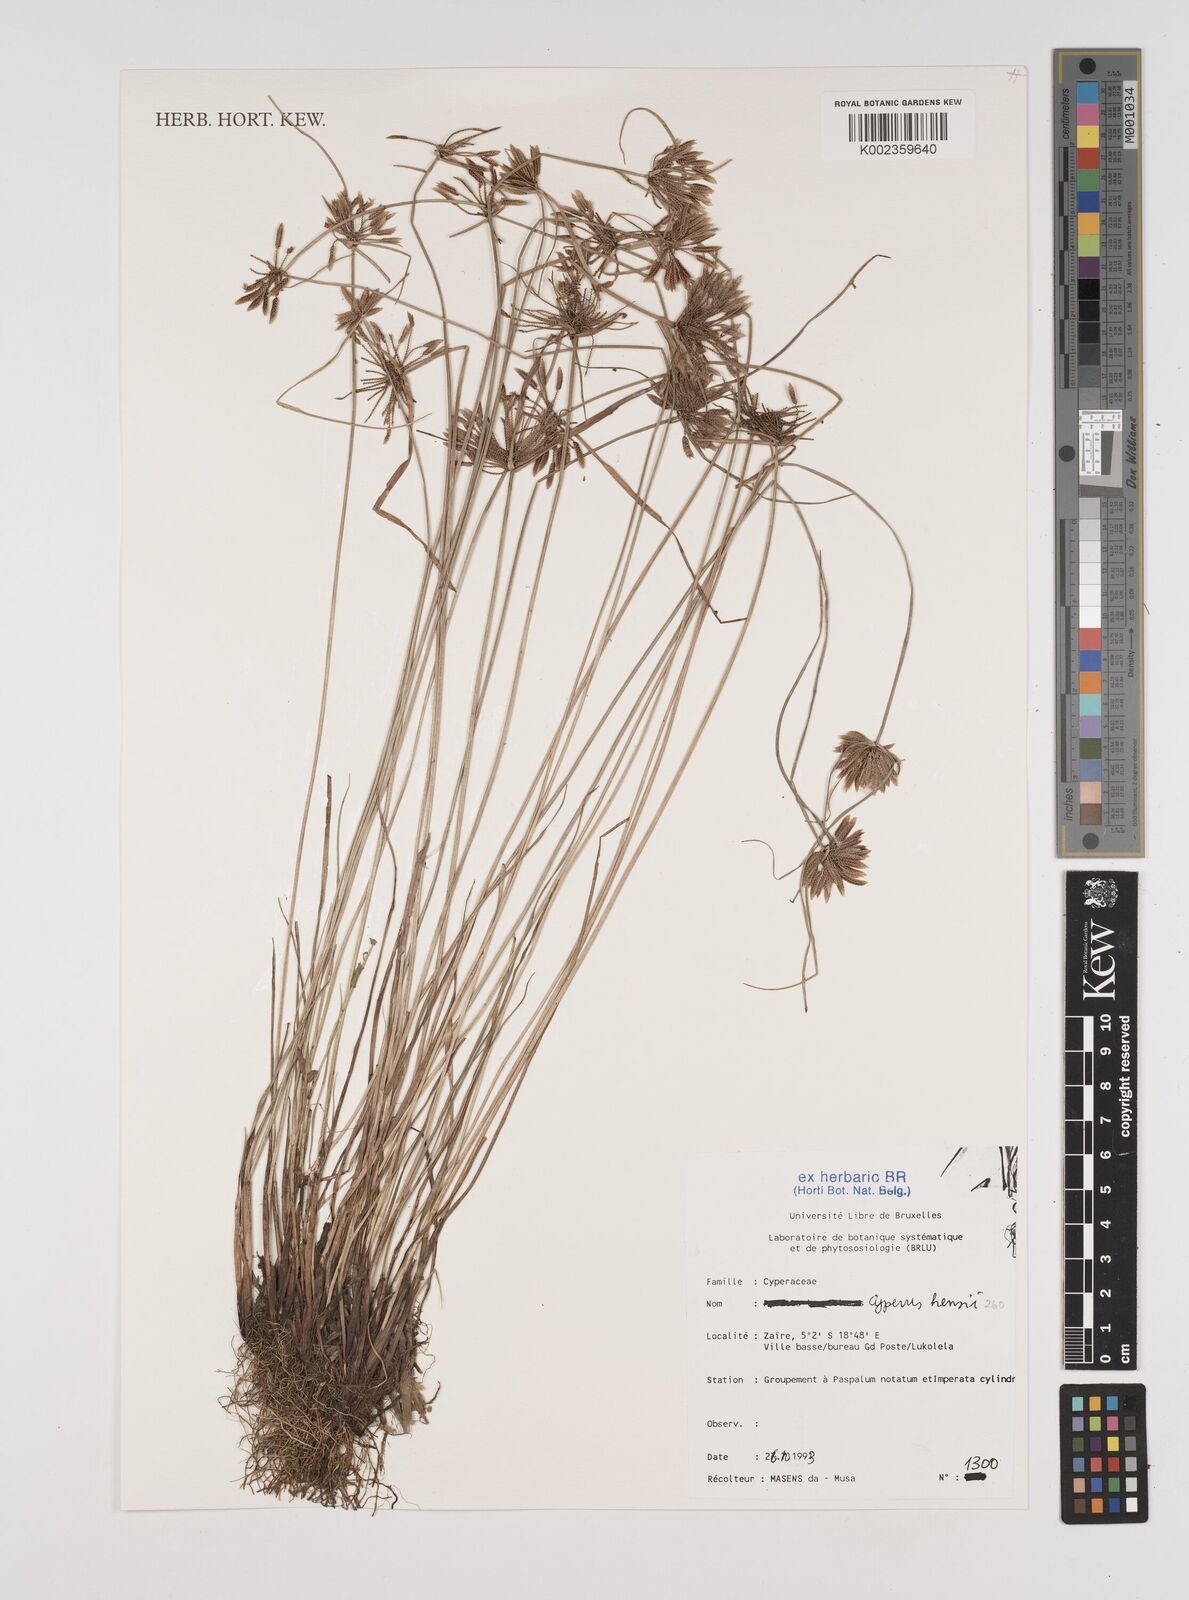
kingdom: Plantae
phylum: Tracheophyta
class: Liliopsida
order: Poales
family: Cyperaceae
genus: Cyperus
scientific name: Cyperus hensii
